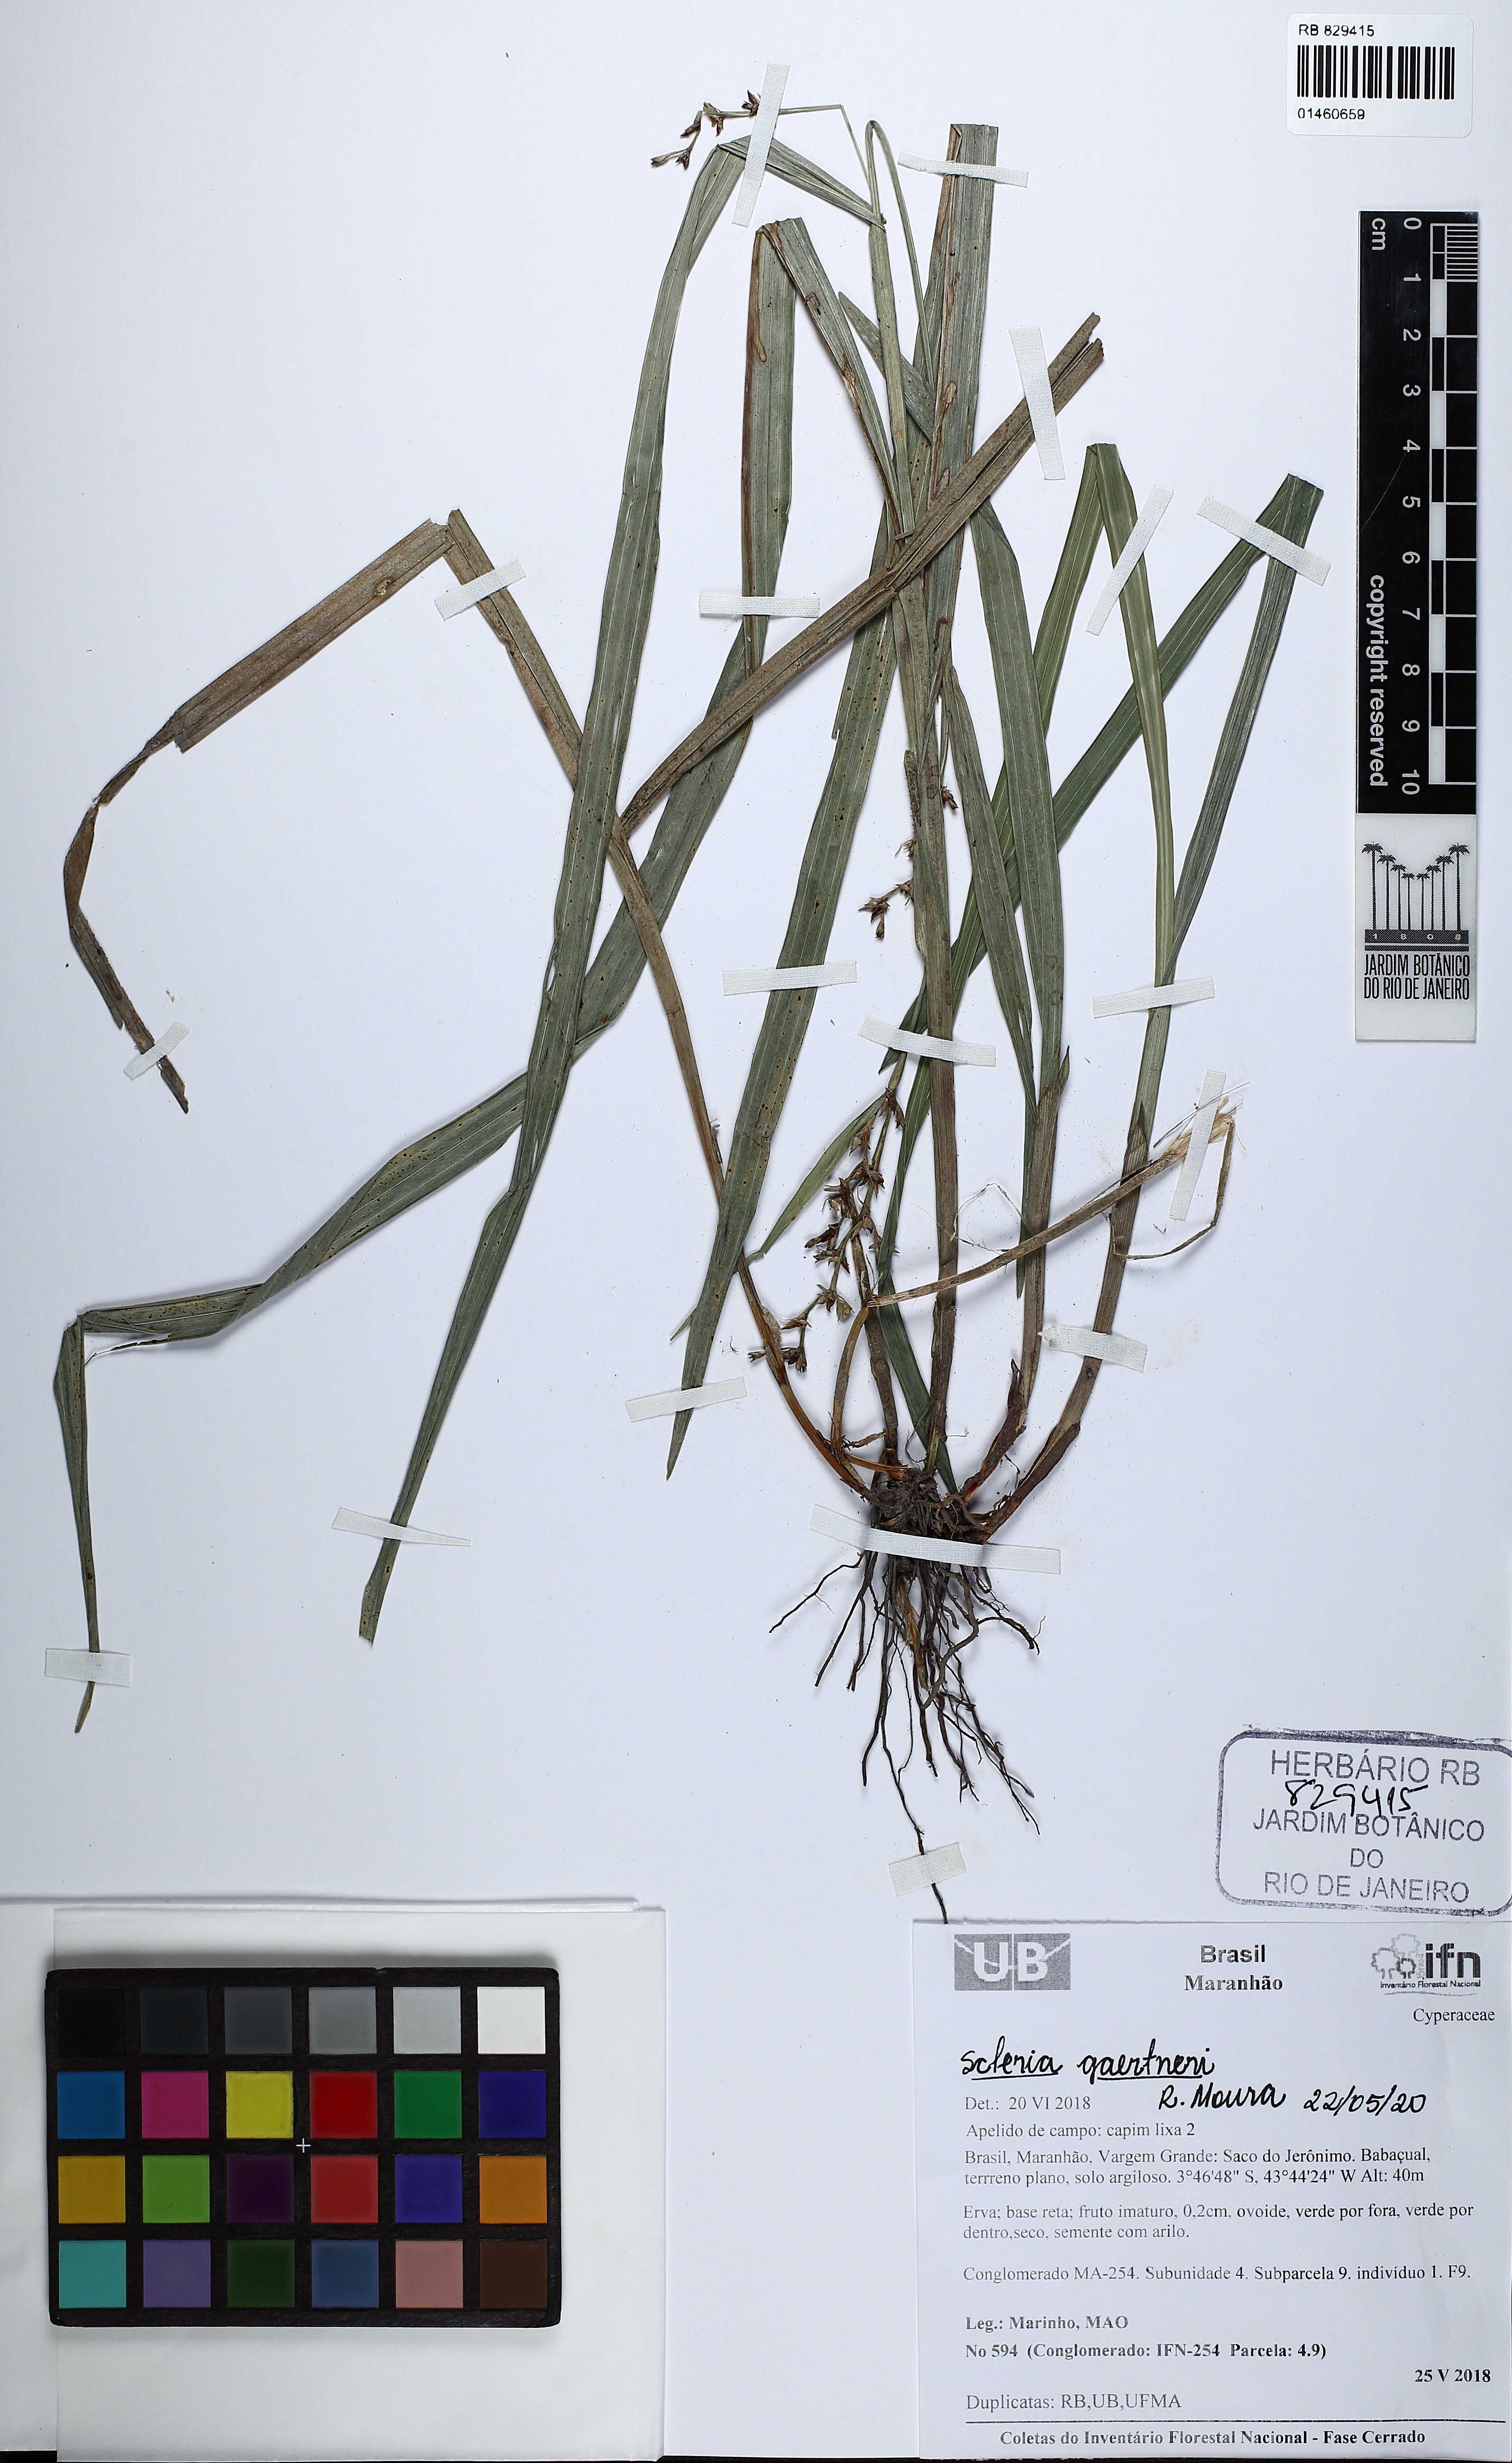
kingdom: Plantae
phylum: Tracheophyta
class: Liliopsida
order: Poales
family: Cyperaceae
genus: Scleria
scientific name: Scleria gaertneri
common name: Cortadera blanca
